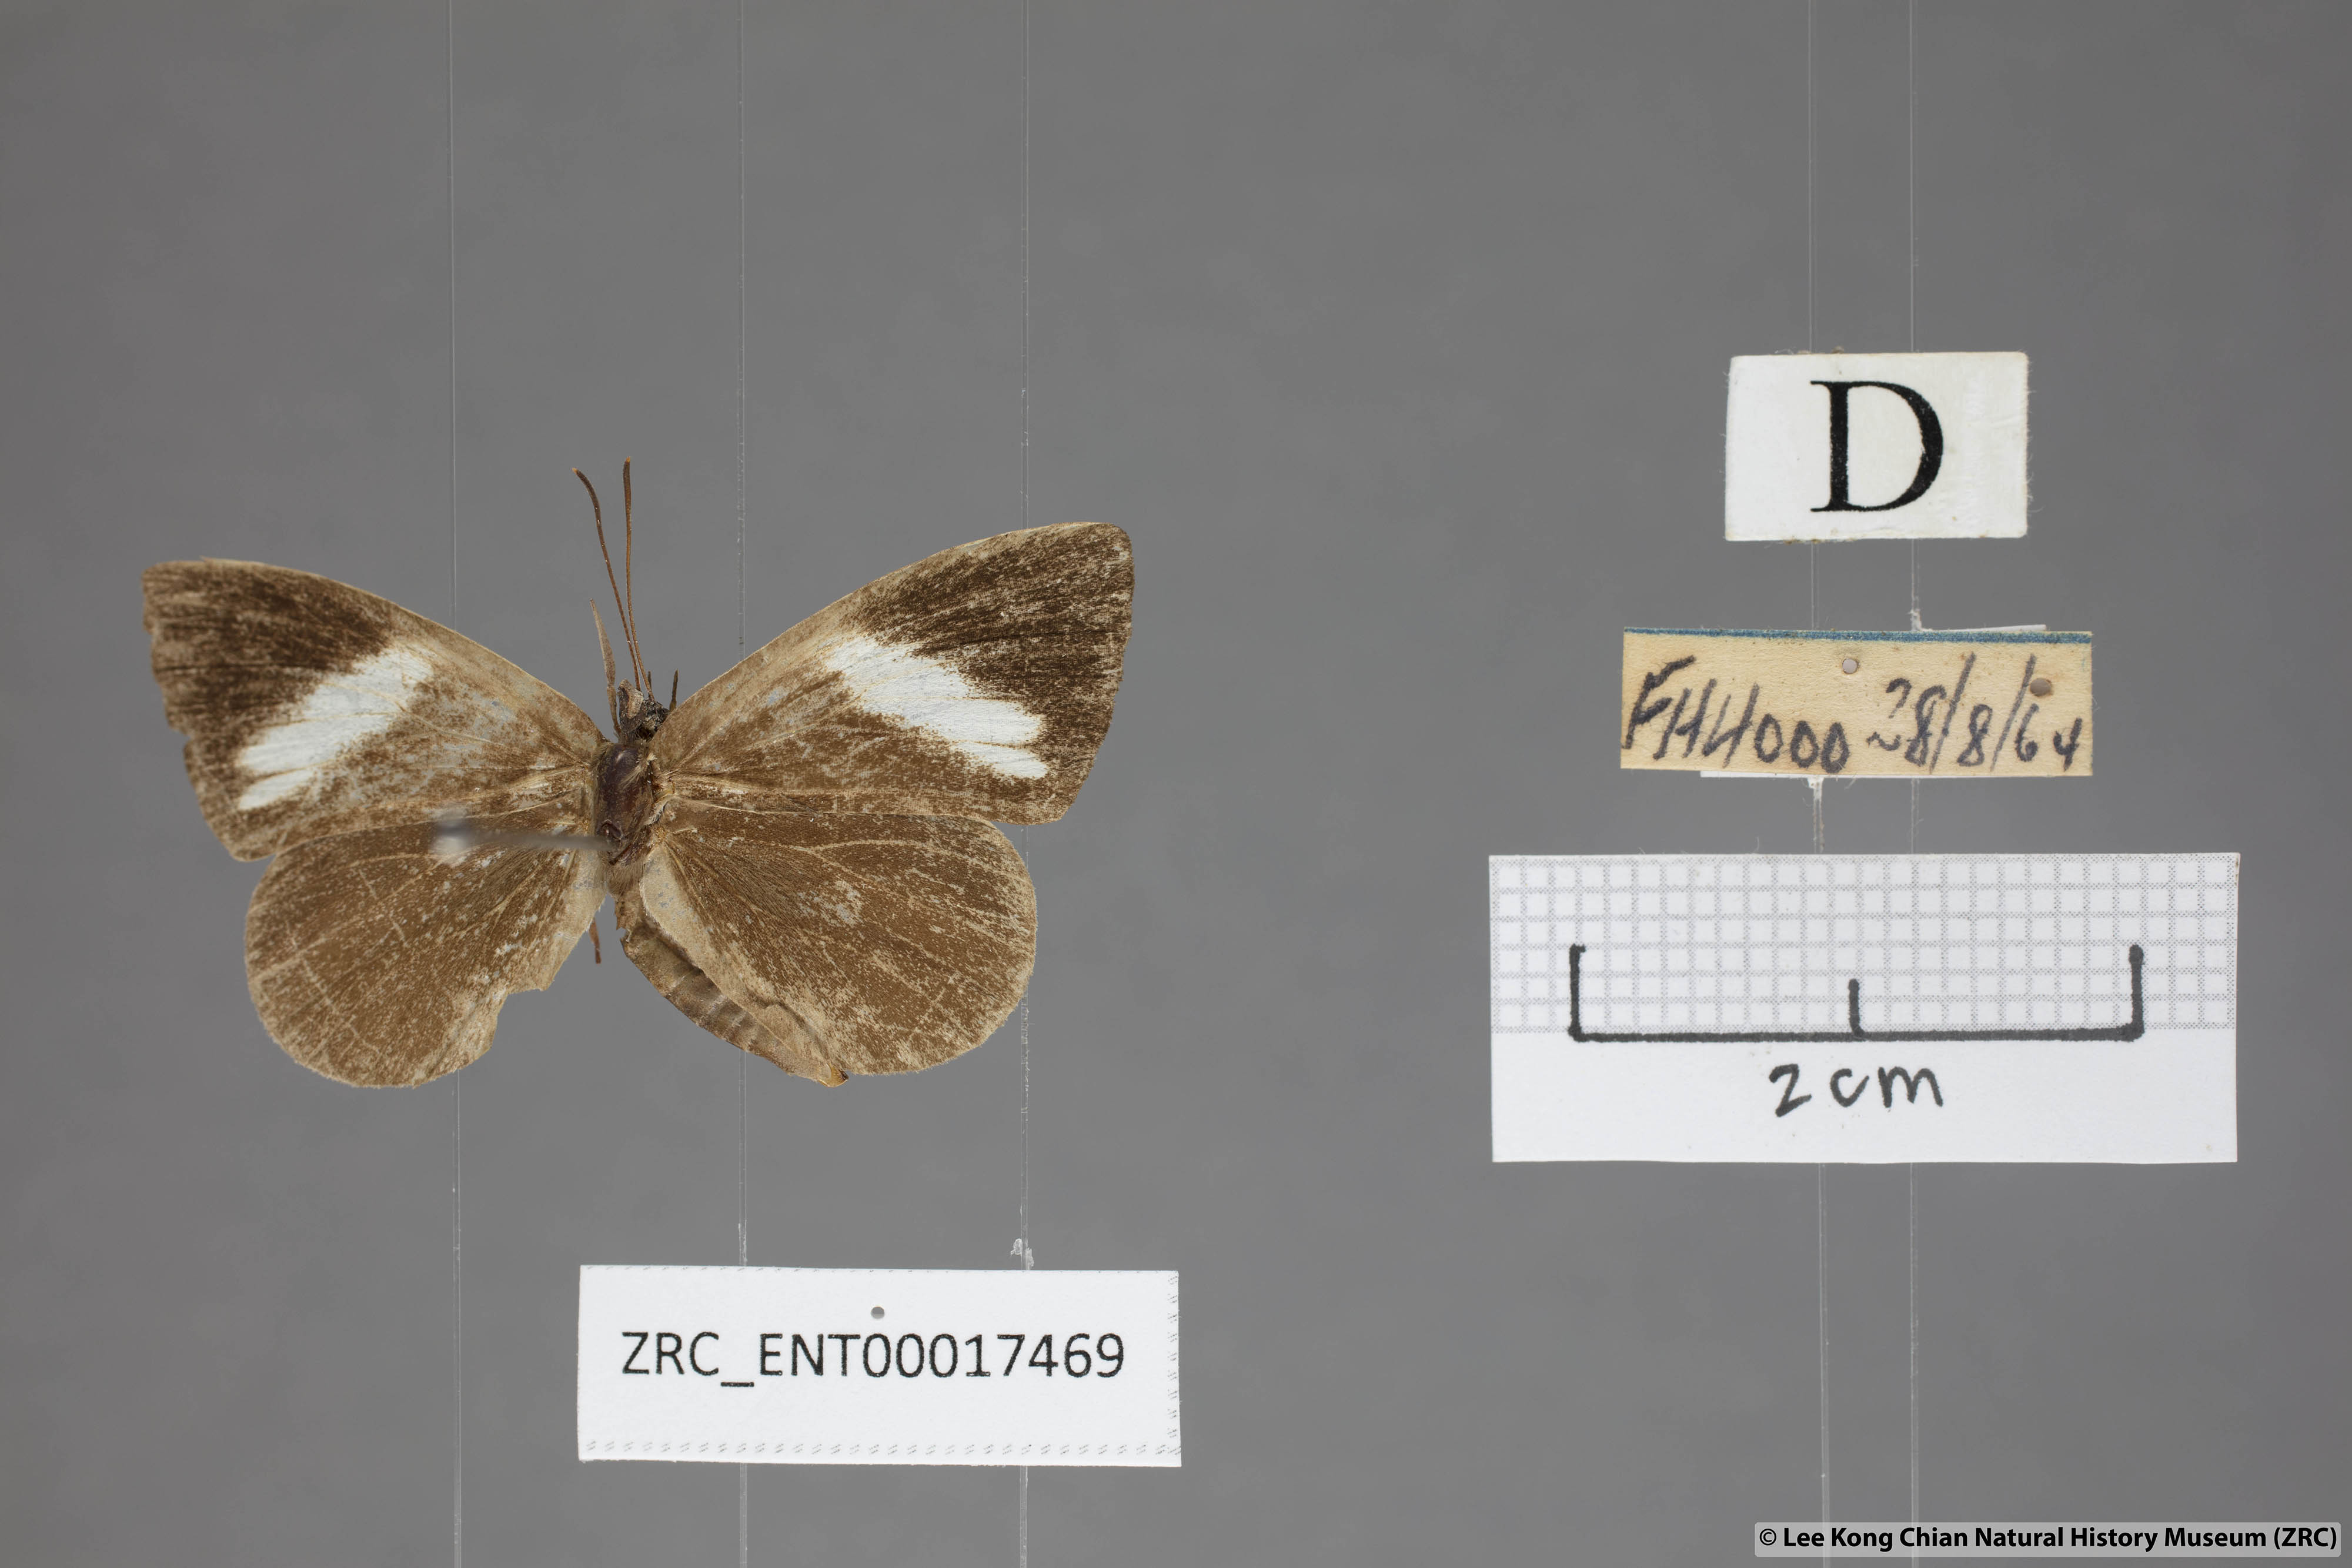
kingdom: Animalia
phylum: Arthropoda
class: Insecta
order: Lepidoptera
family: Lycaenidae
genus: Miletus
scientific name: Miletus nymphis
